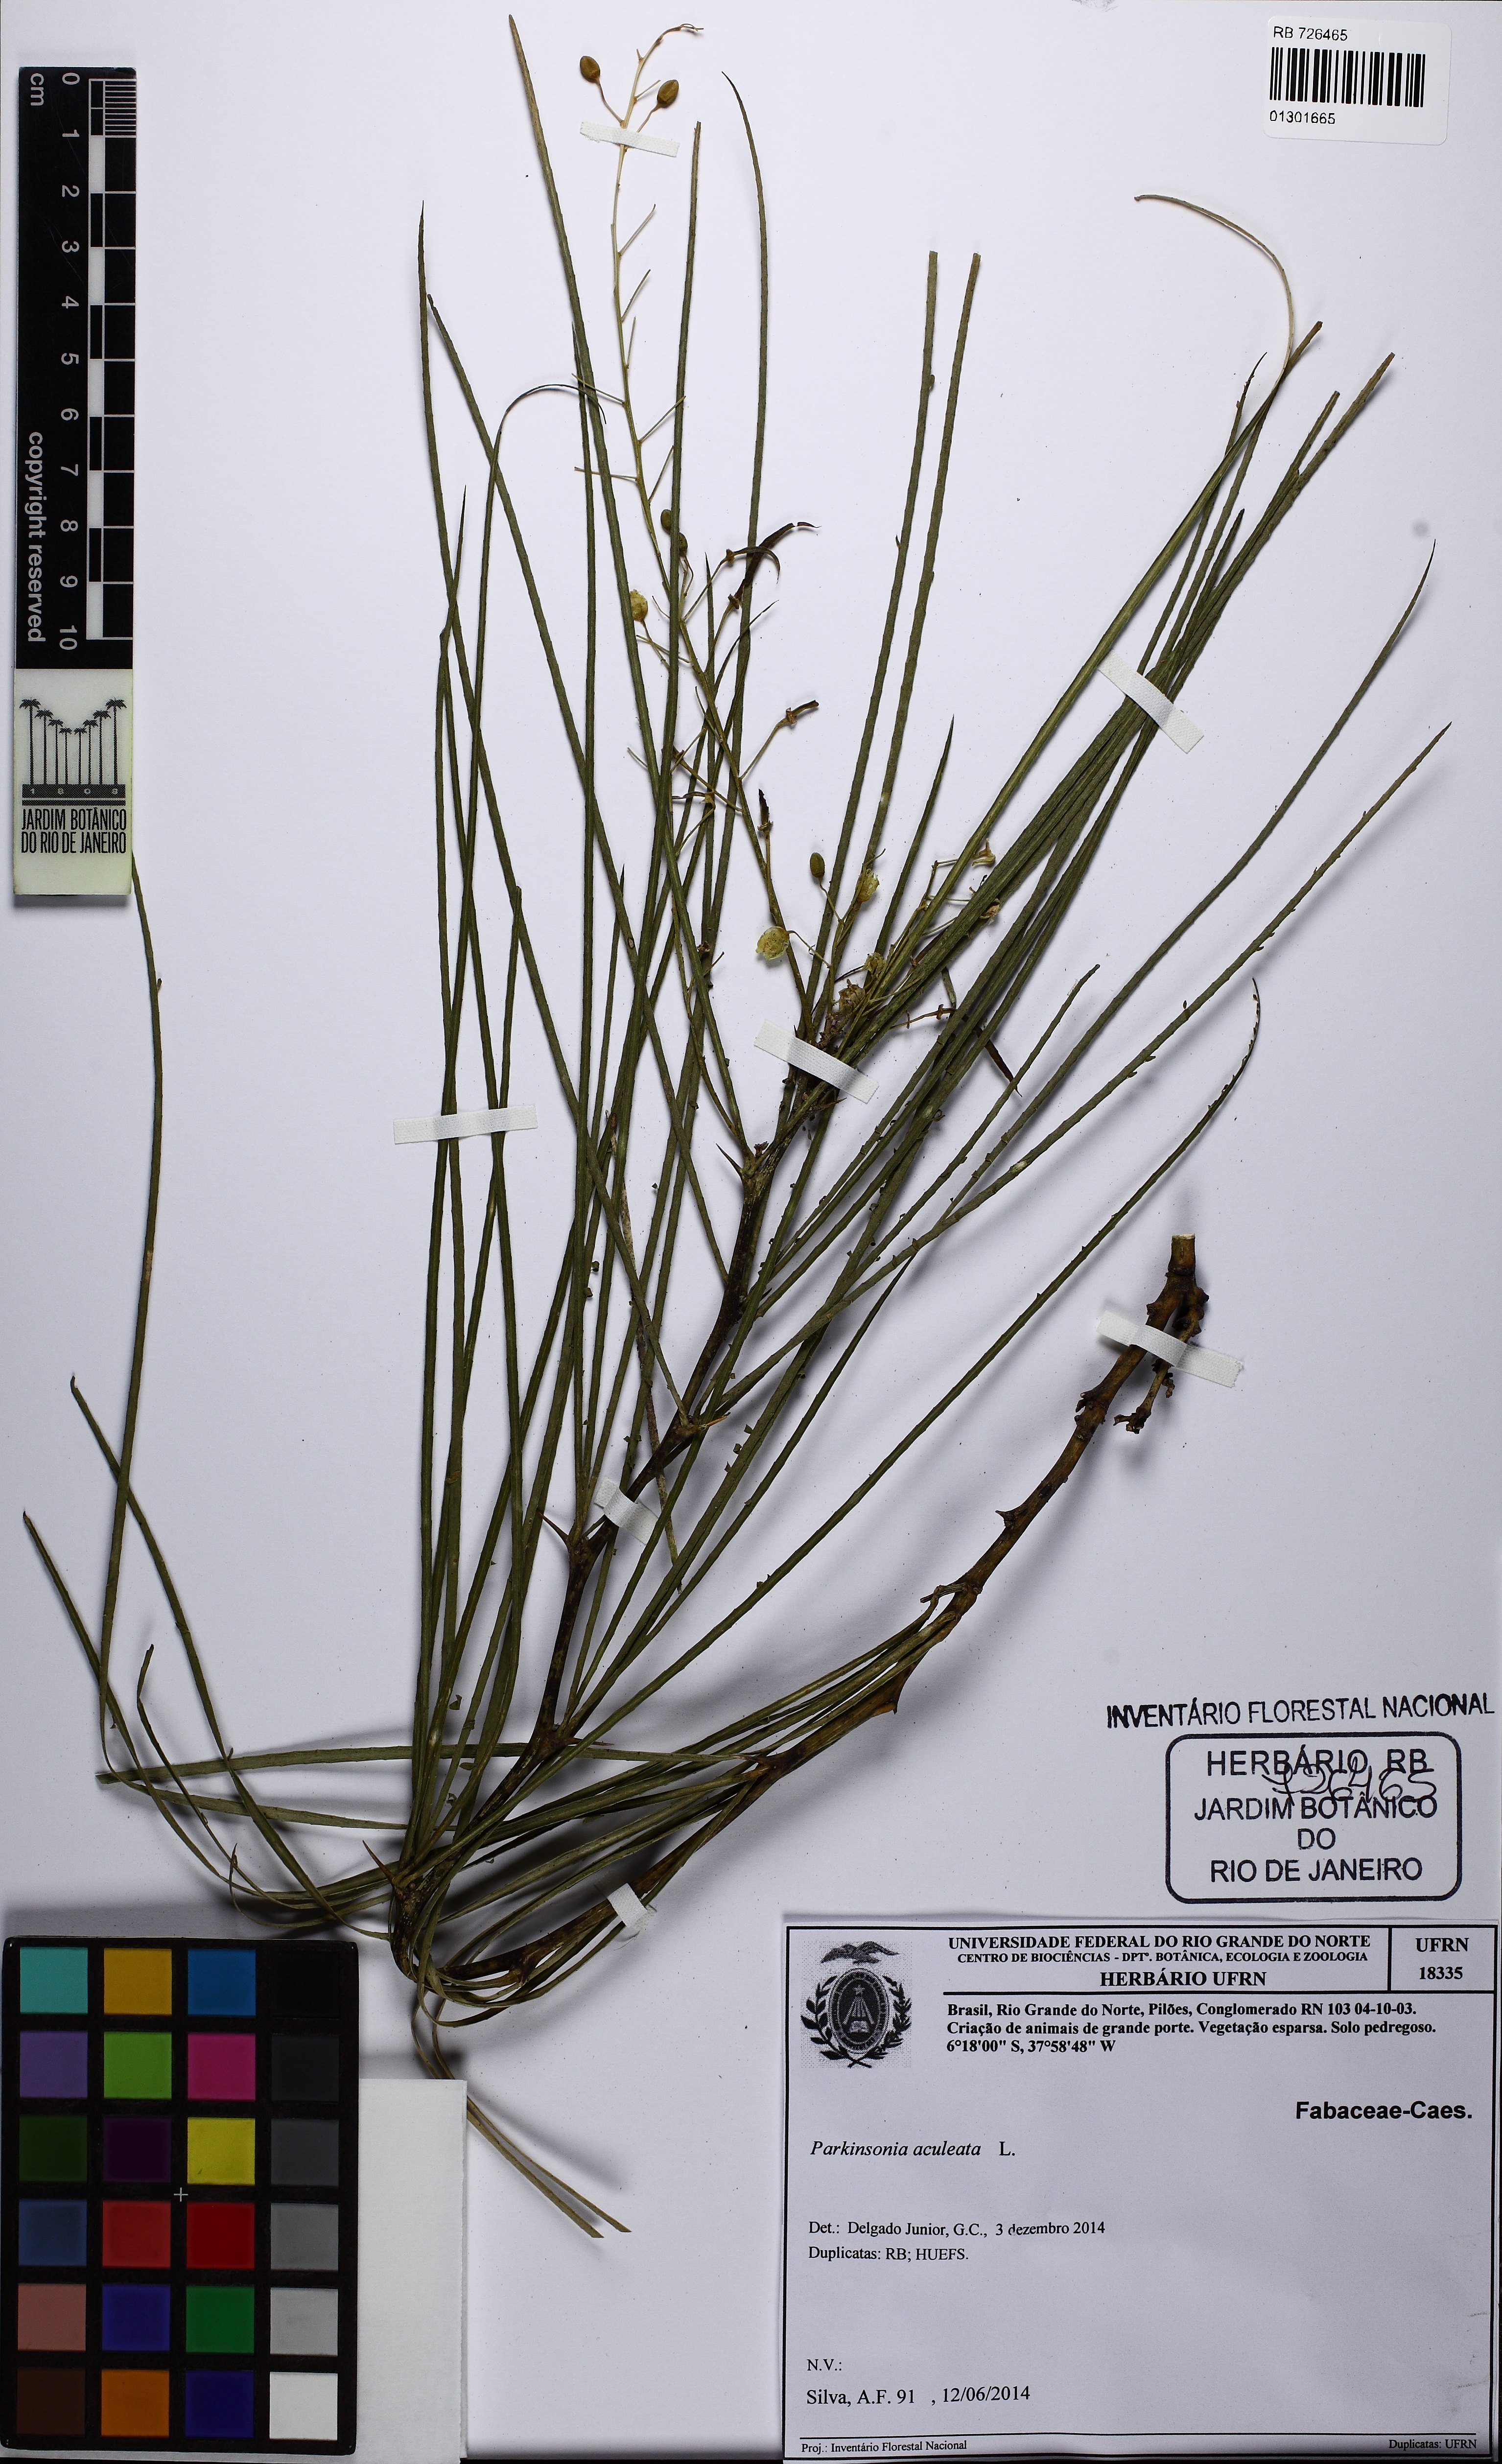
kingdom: Plantae
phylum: Tracheophyta
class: Magnoliopsida
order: Fabales
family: Fabaceae
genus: Parkinsonia
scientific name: Parkinsonia aculeata
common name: Jerusalem thorn
